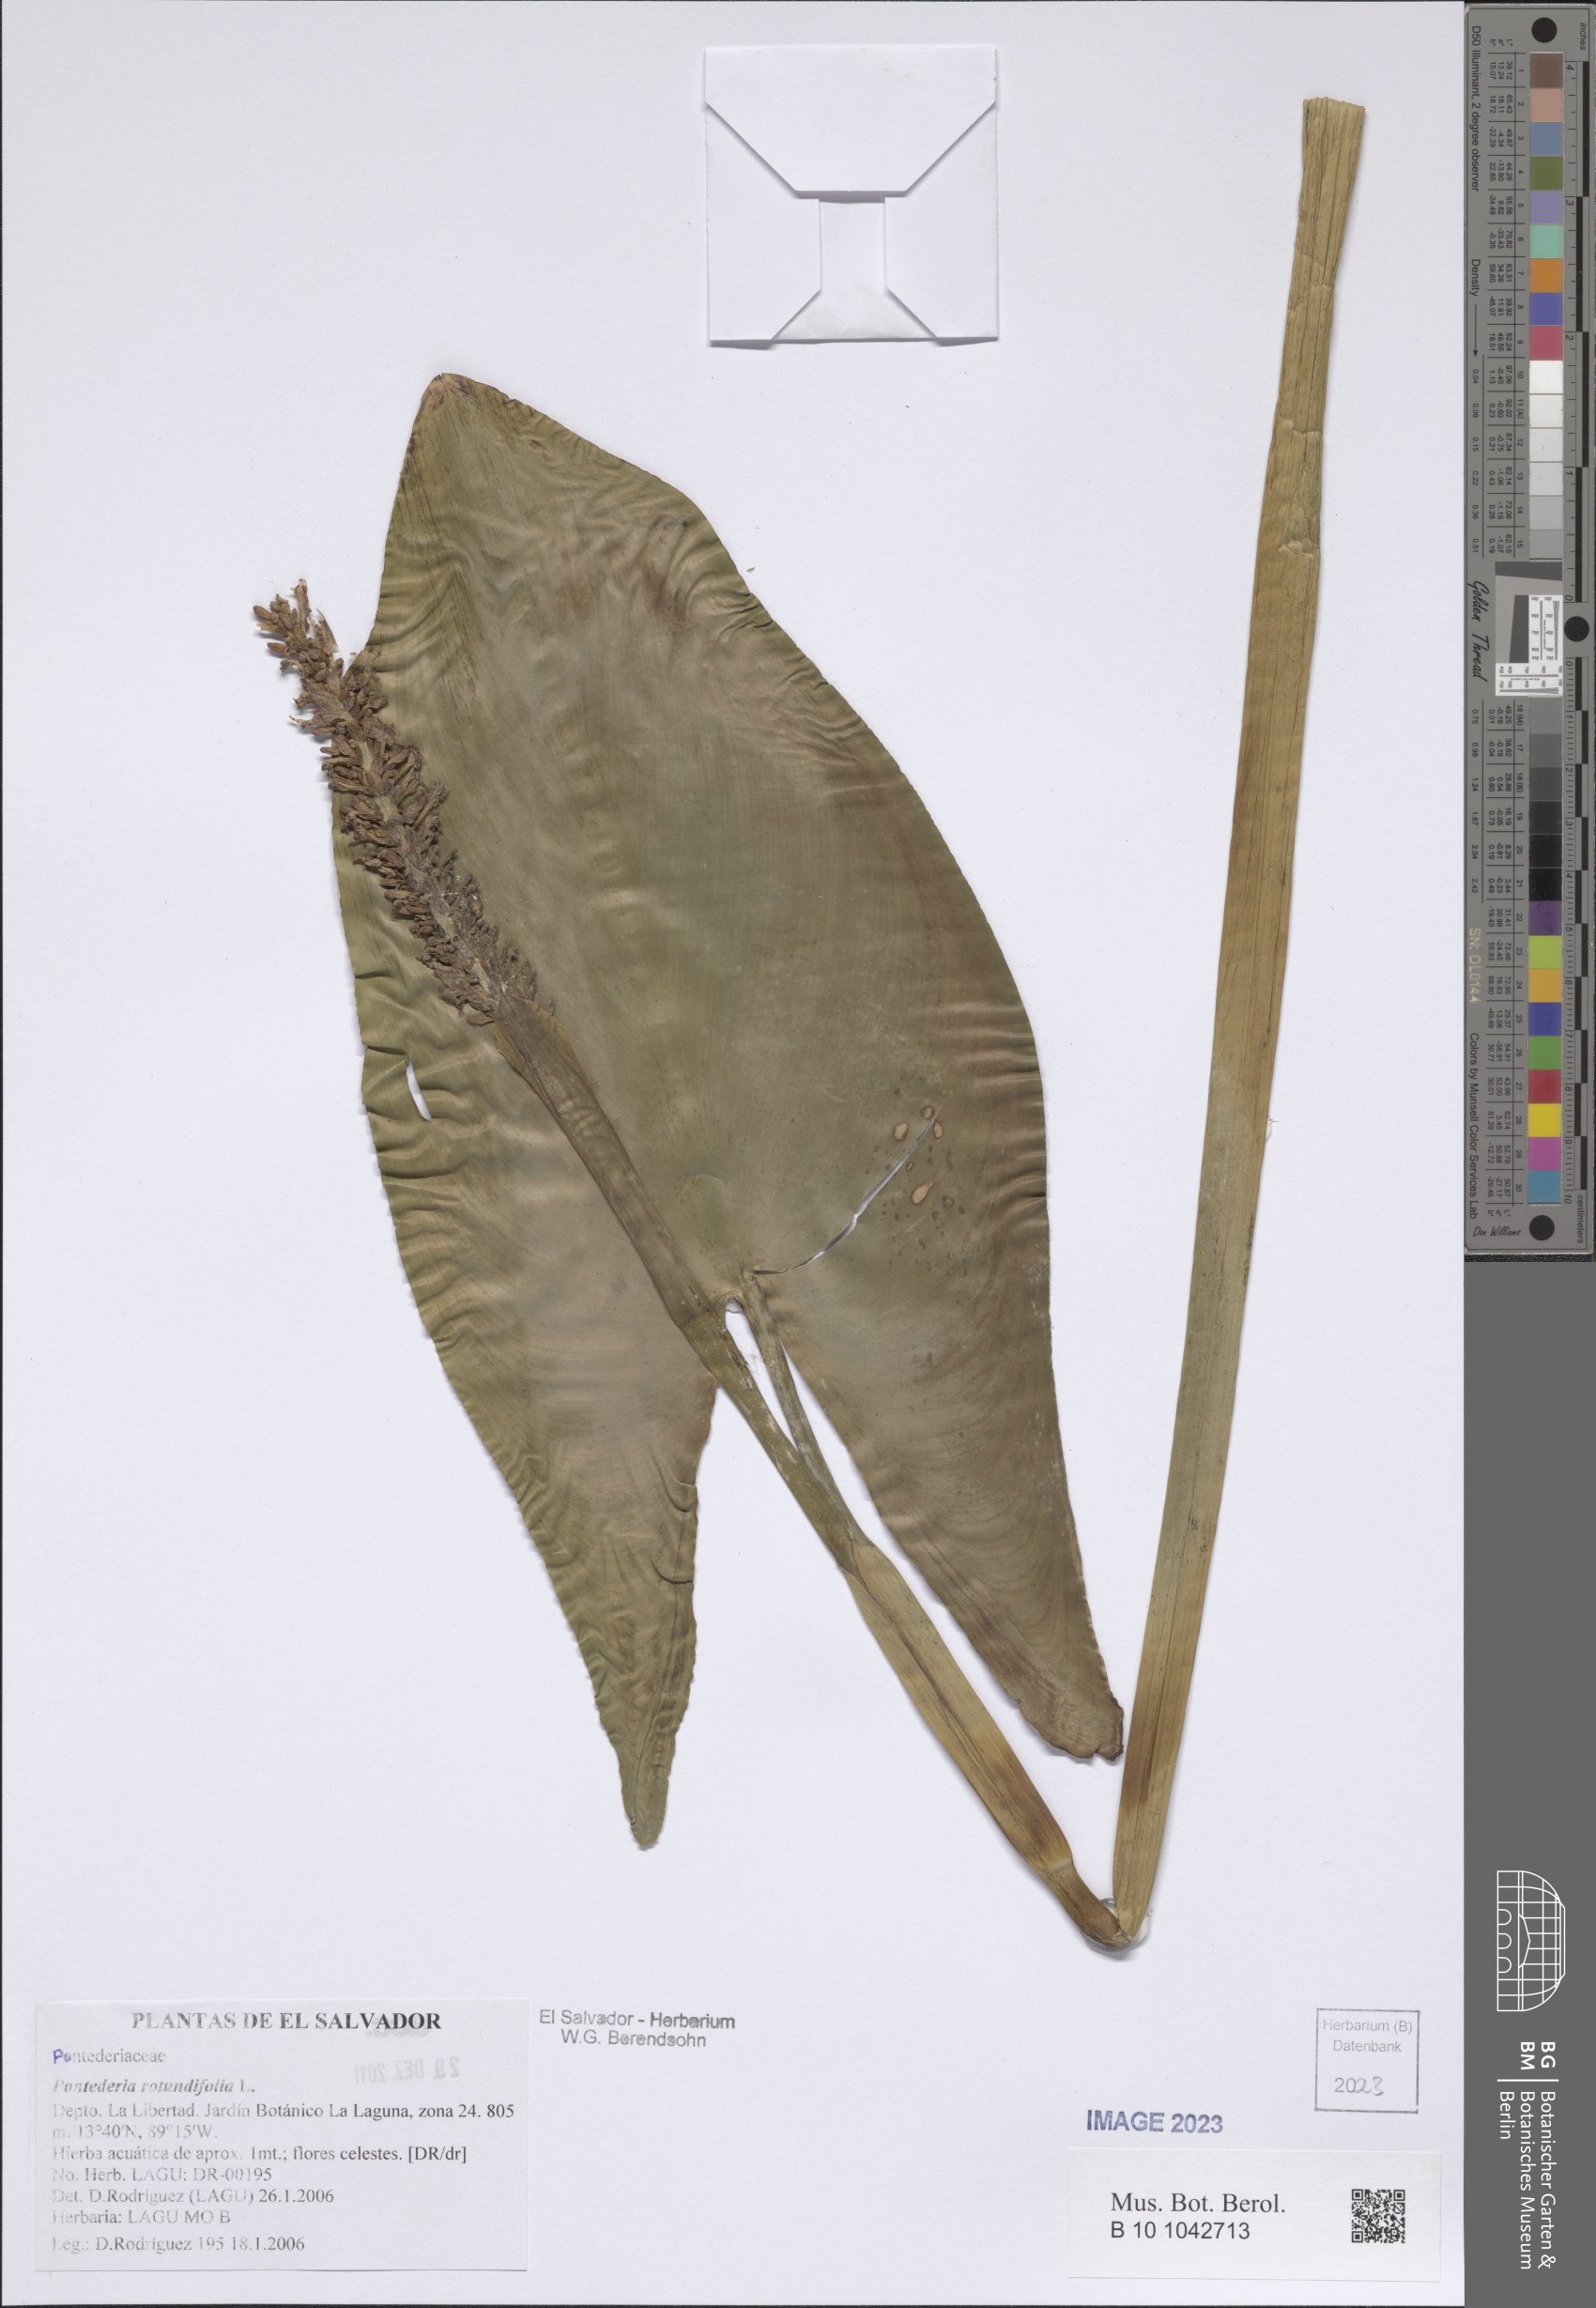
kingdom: Plantae
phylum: Tracheophyta
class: Liliopsida
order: Commelinales
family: Pontederiaceae
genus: Pontederia
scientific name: Pontederia rotundifolia
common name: Tropical pickerel-weed
